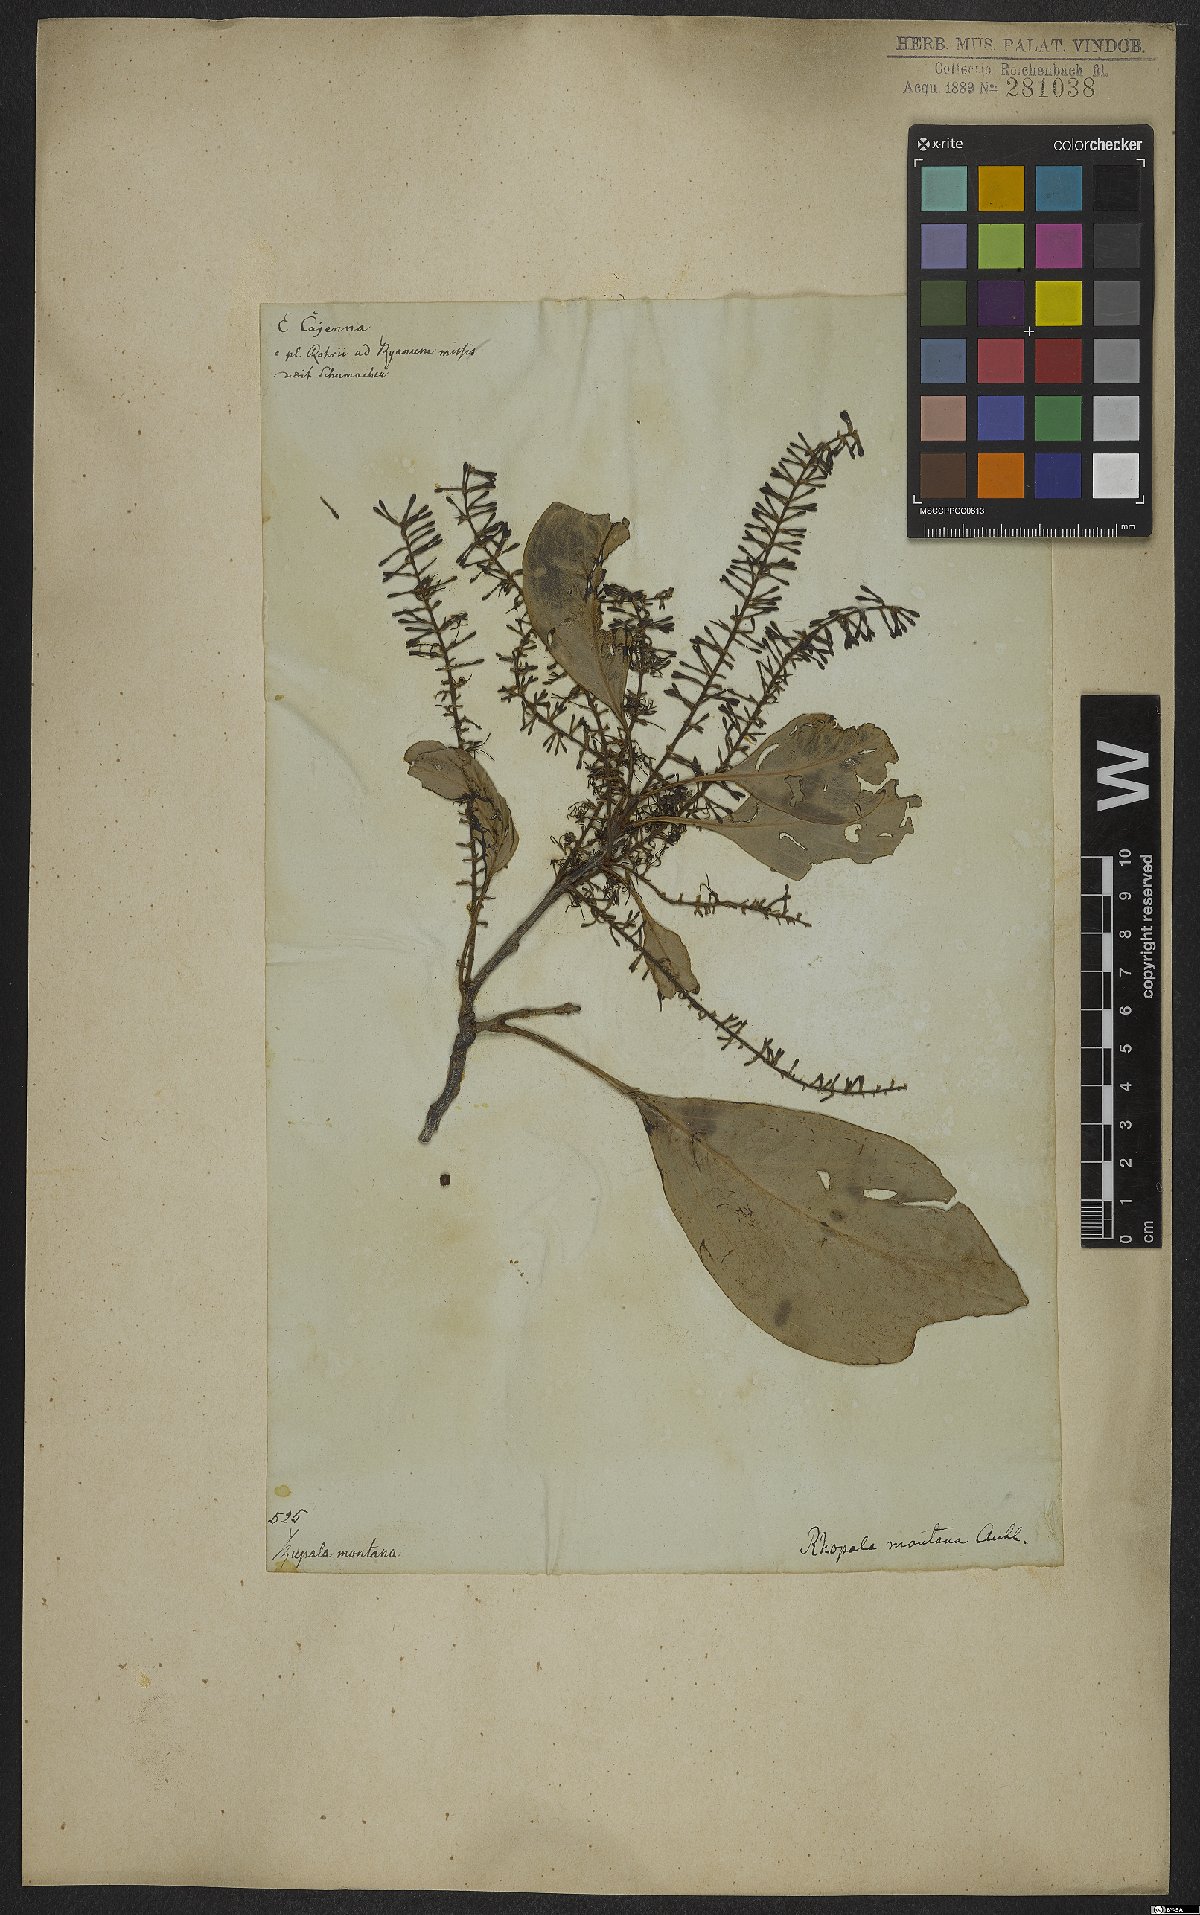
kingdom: Plantae
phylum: Tracheophyta
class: Magnoliopsida
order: Proteales
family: Proteaceae
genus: Roupala
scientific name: Roupala montana
